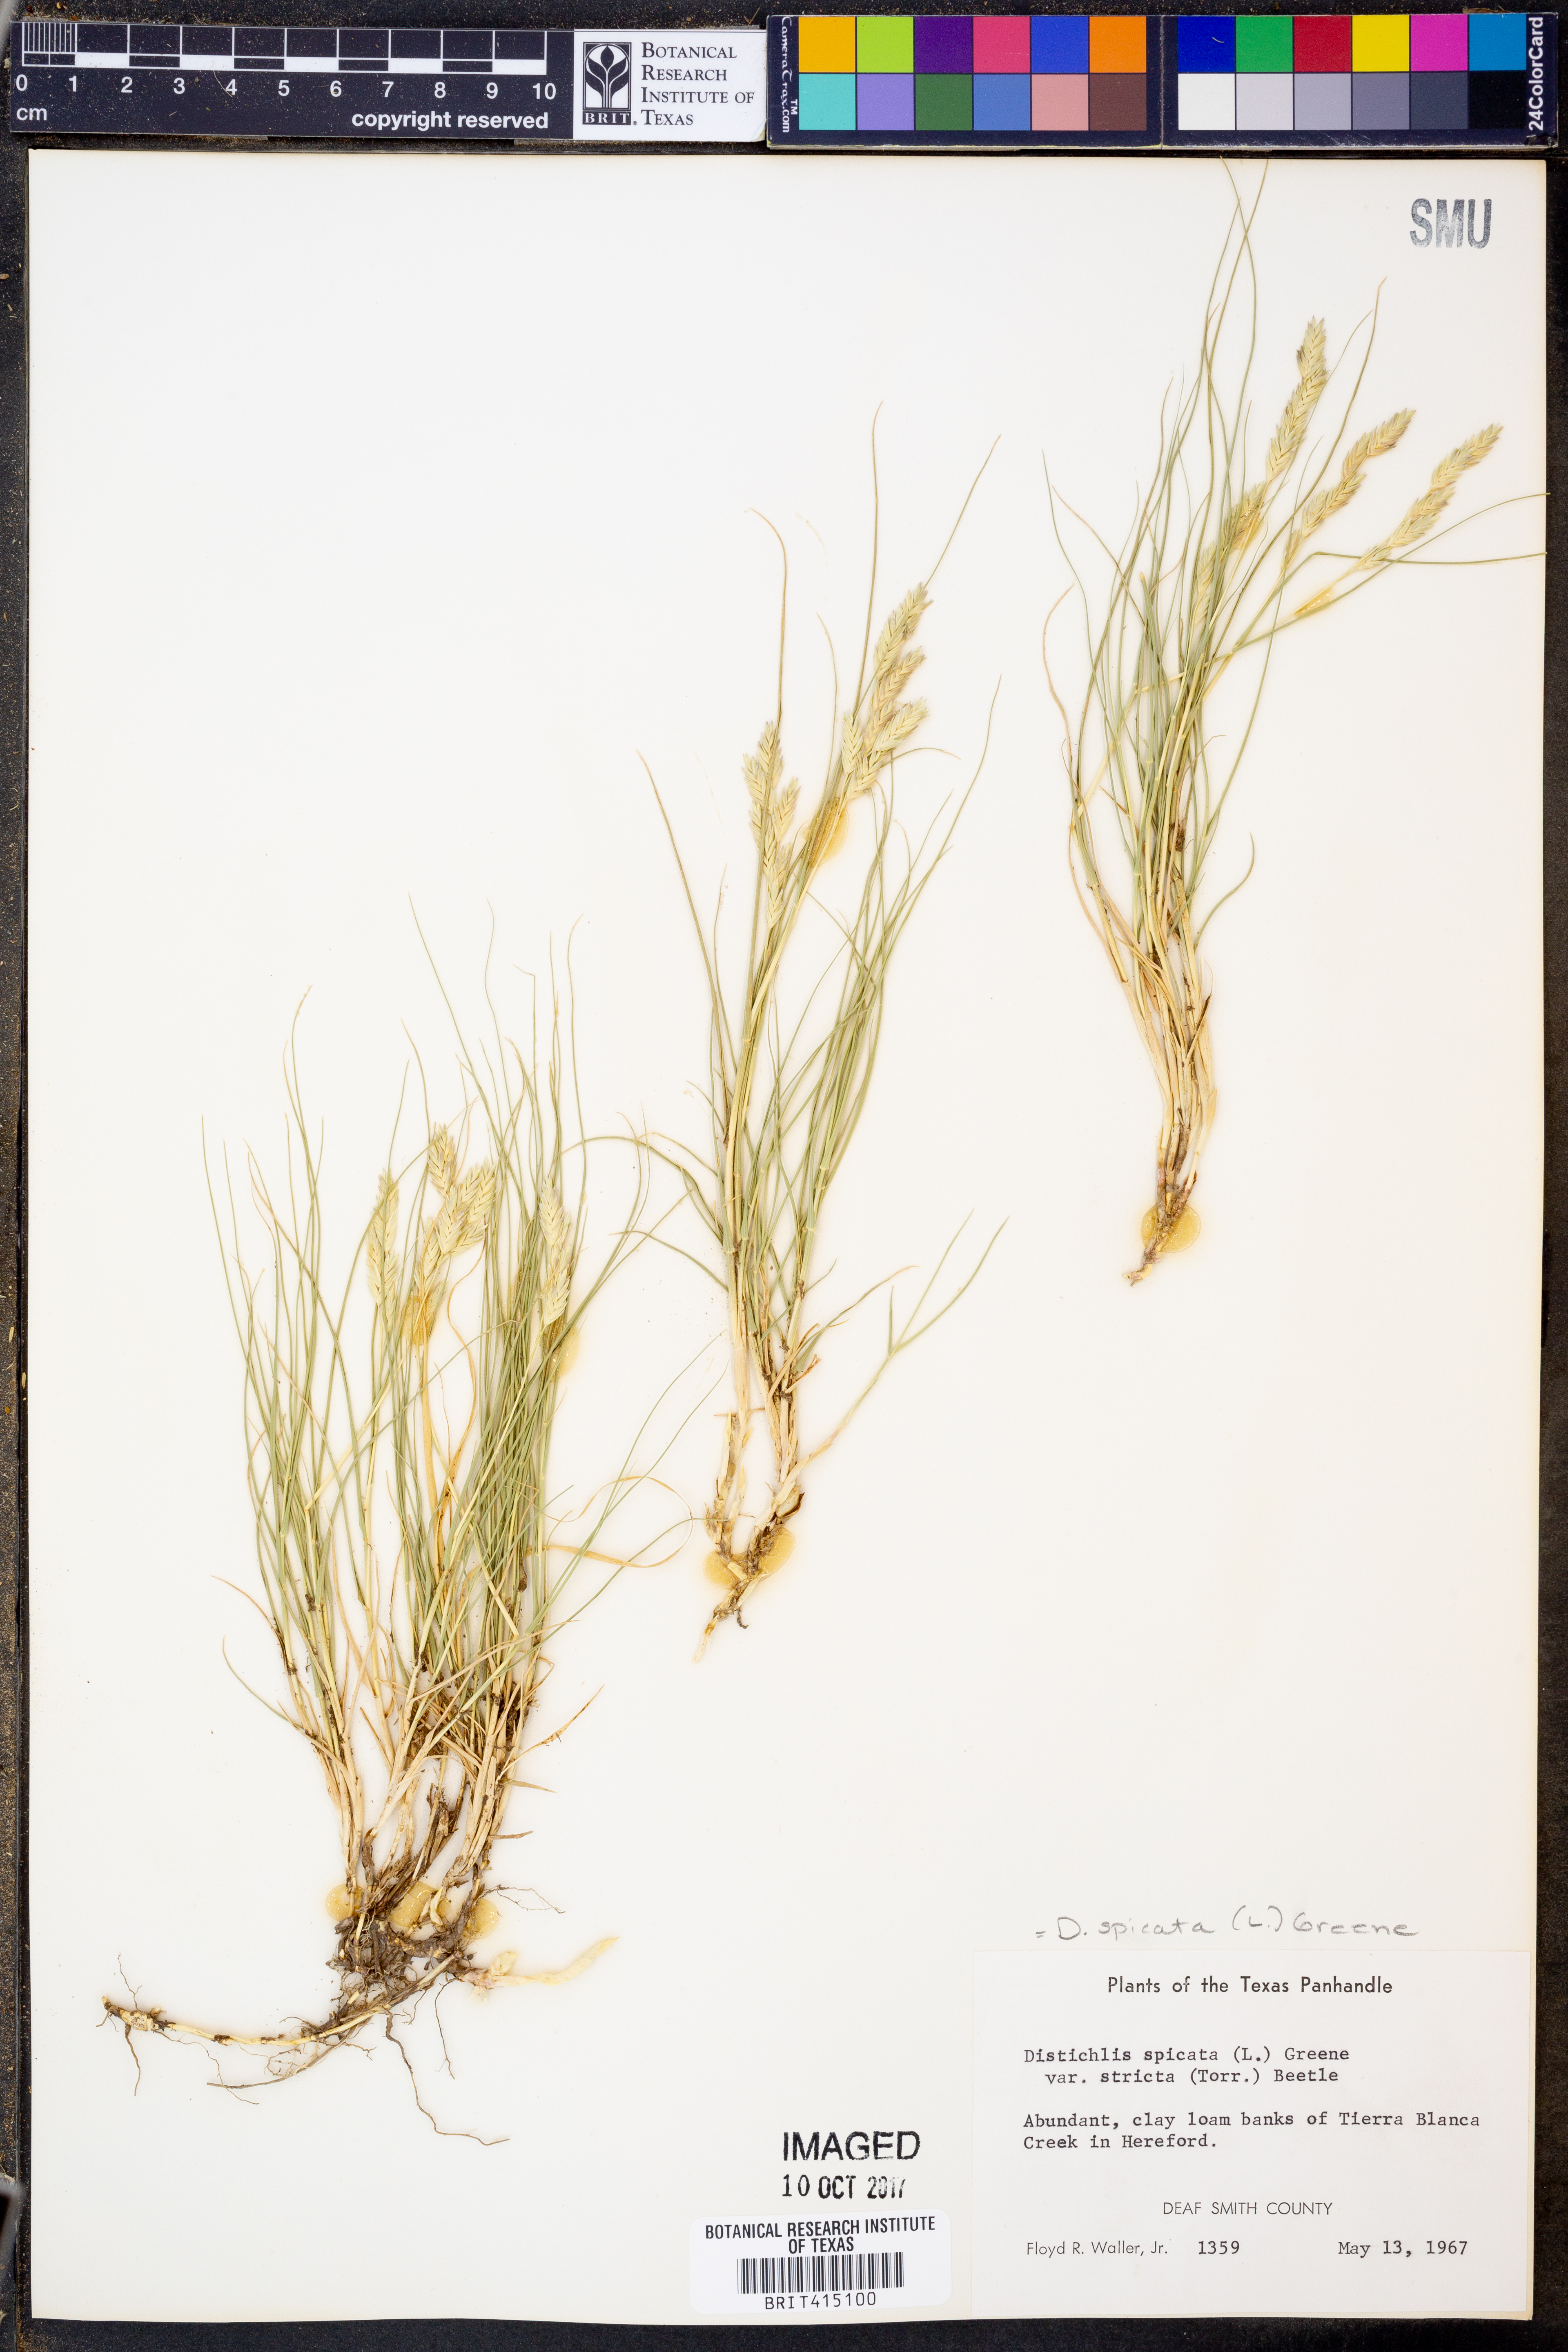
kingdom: Plantae
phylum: Tracheophyta
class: Liliopsida
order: Poales
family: Poaceae
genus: Distichlis
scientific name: Distichlis spicata
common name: Saltgrass
